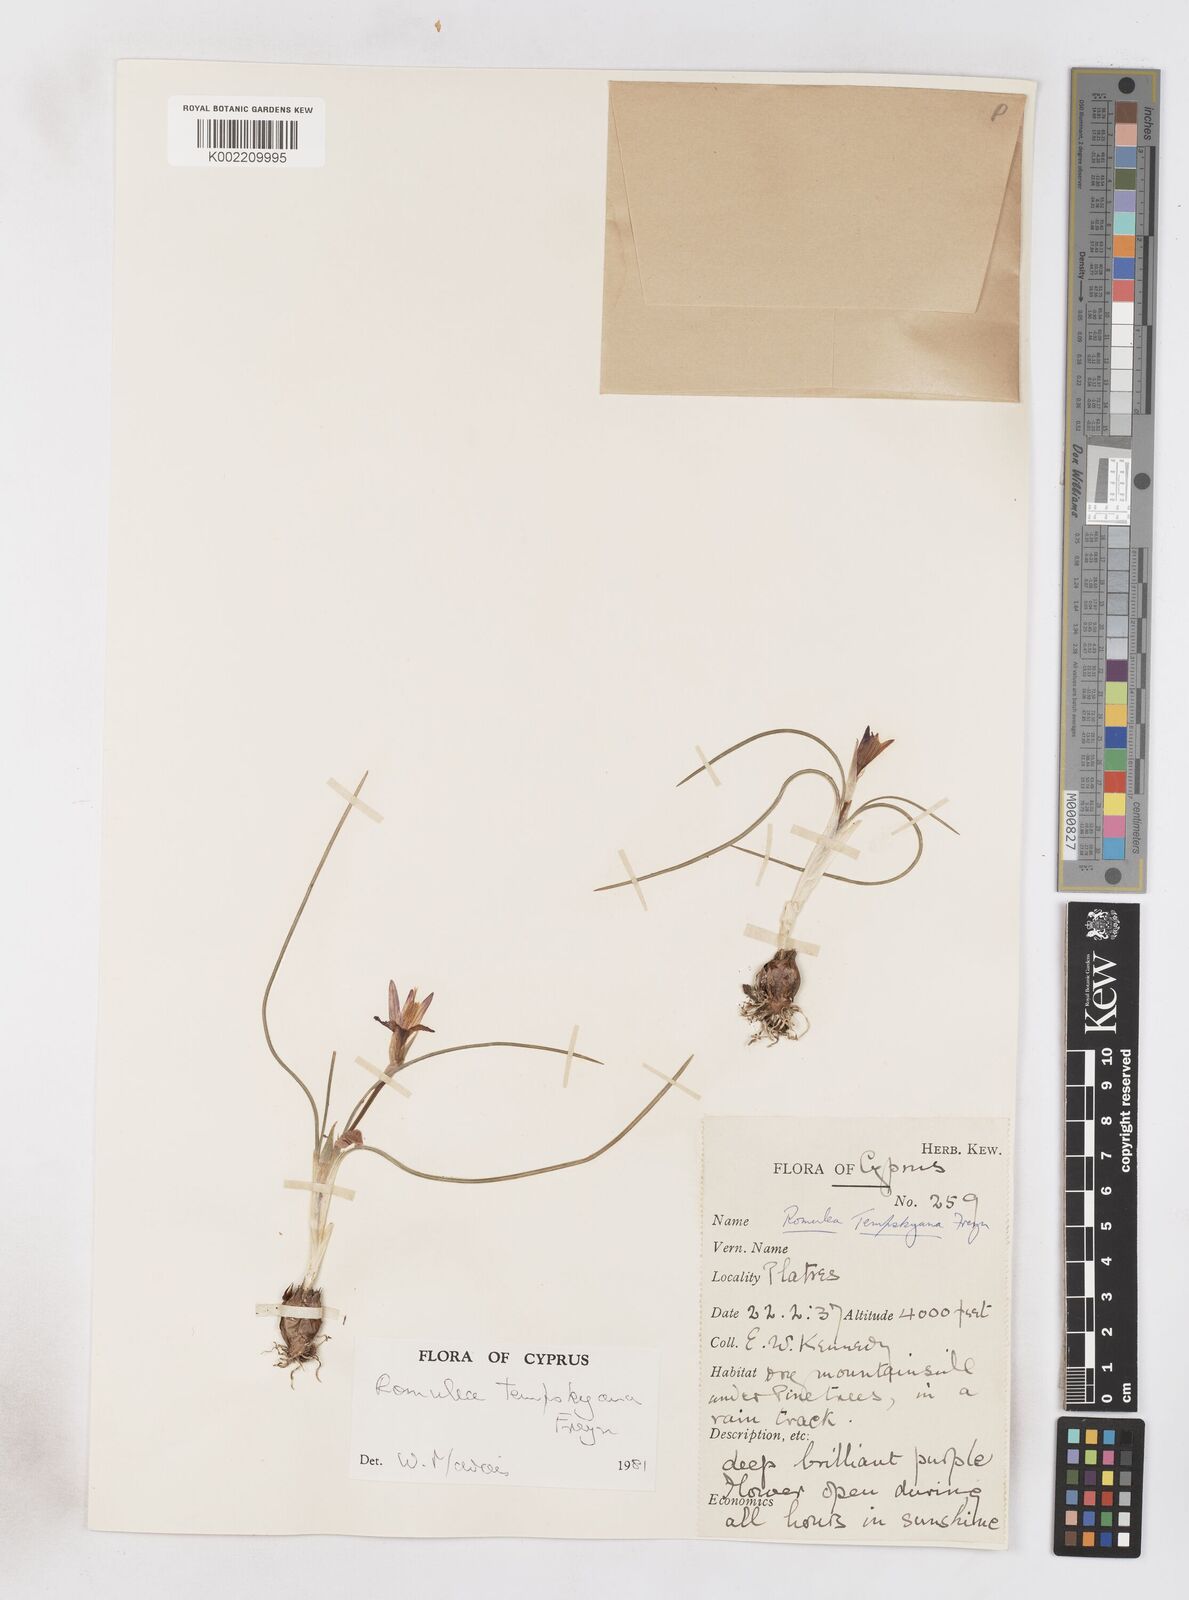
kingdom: Plantae
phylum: Tracheophyta
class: Liliopsida
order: Asparagales
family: Iridaceae
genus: Romulea
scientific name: Romulea tempskyana
